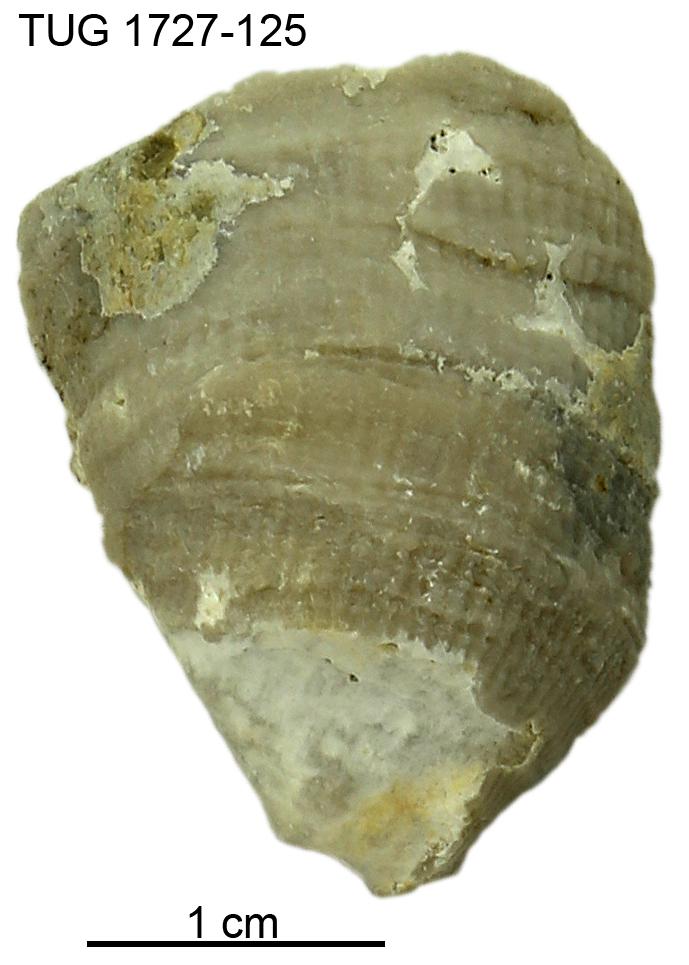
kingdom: Animalia
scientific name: Animalia
